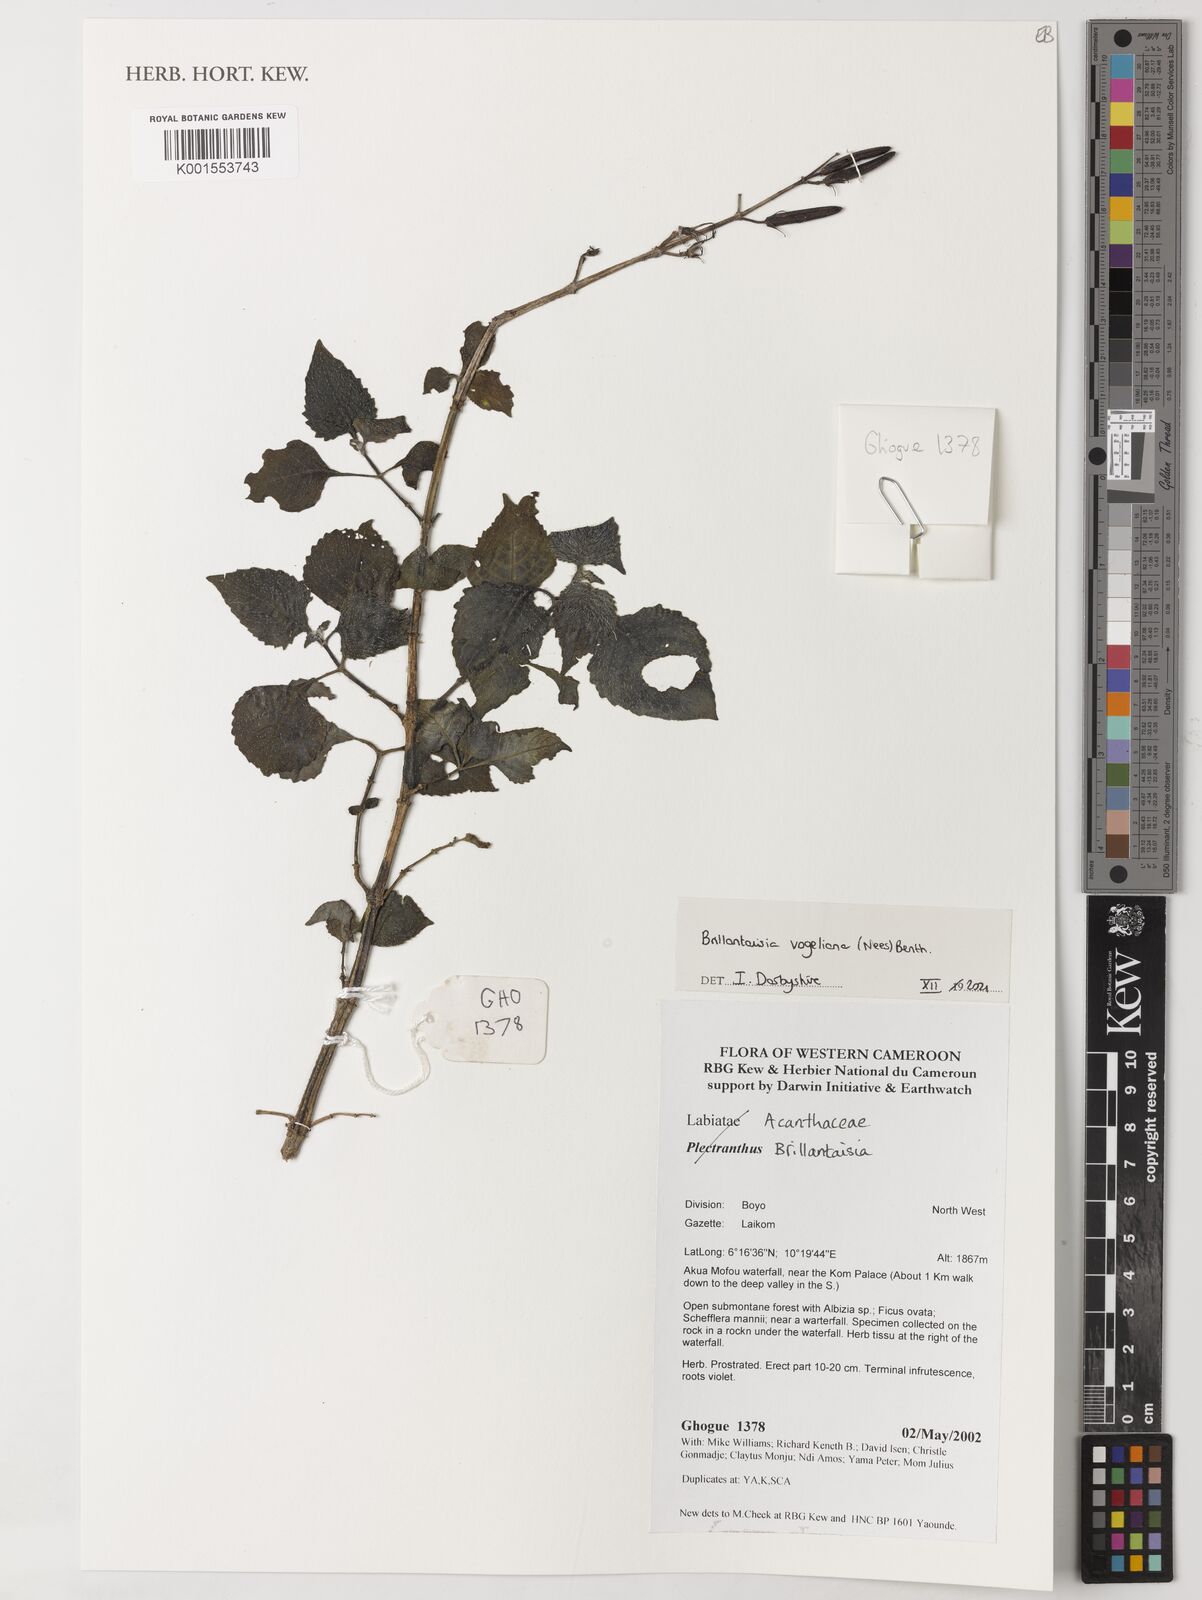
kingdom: Plantae
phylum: Tracheophyta
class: Magnoliopsida
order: Lamiales
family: Acanthaceae
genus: Brillantaisia
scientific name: Brillantaisia vogeliana
